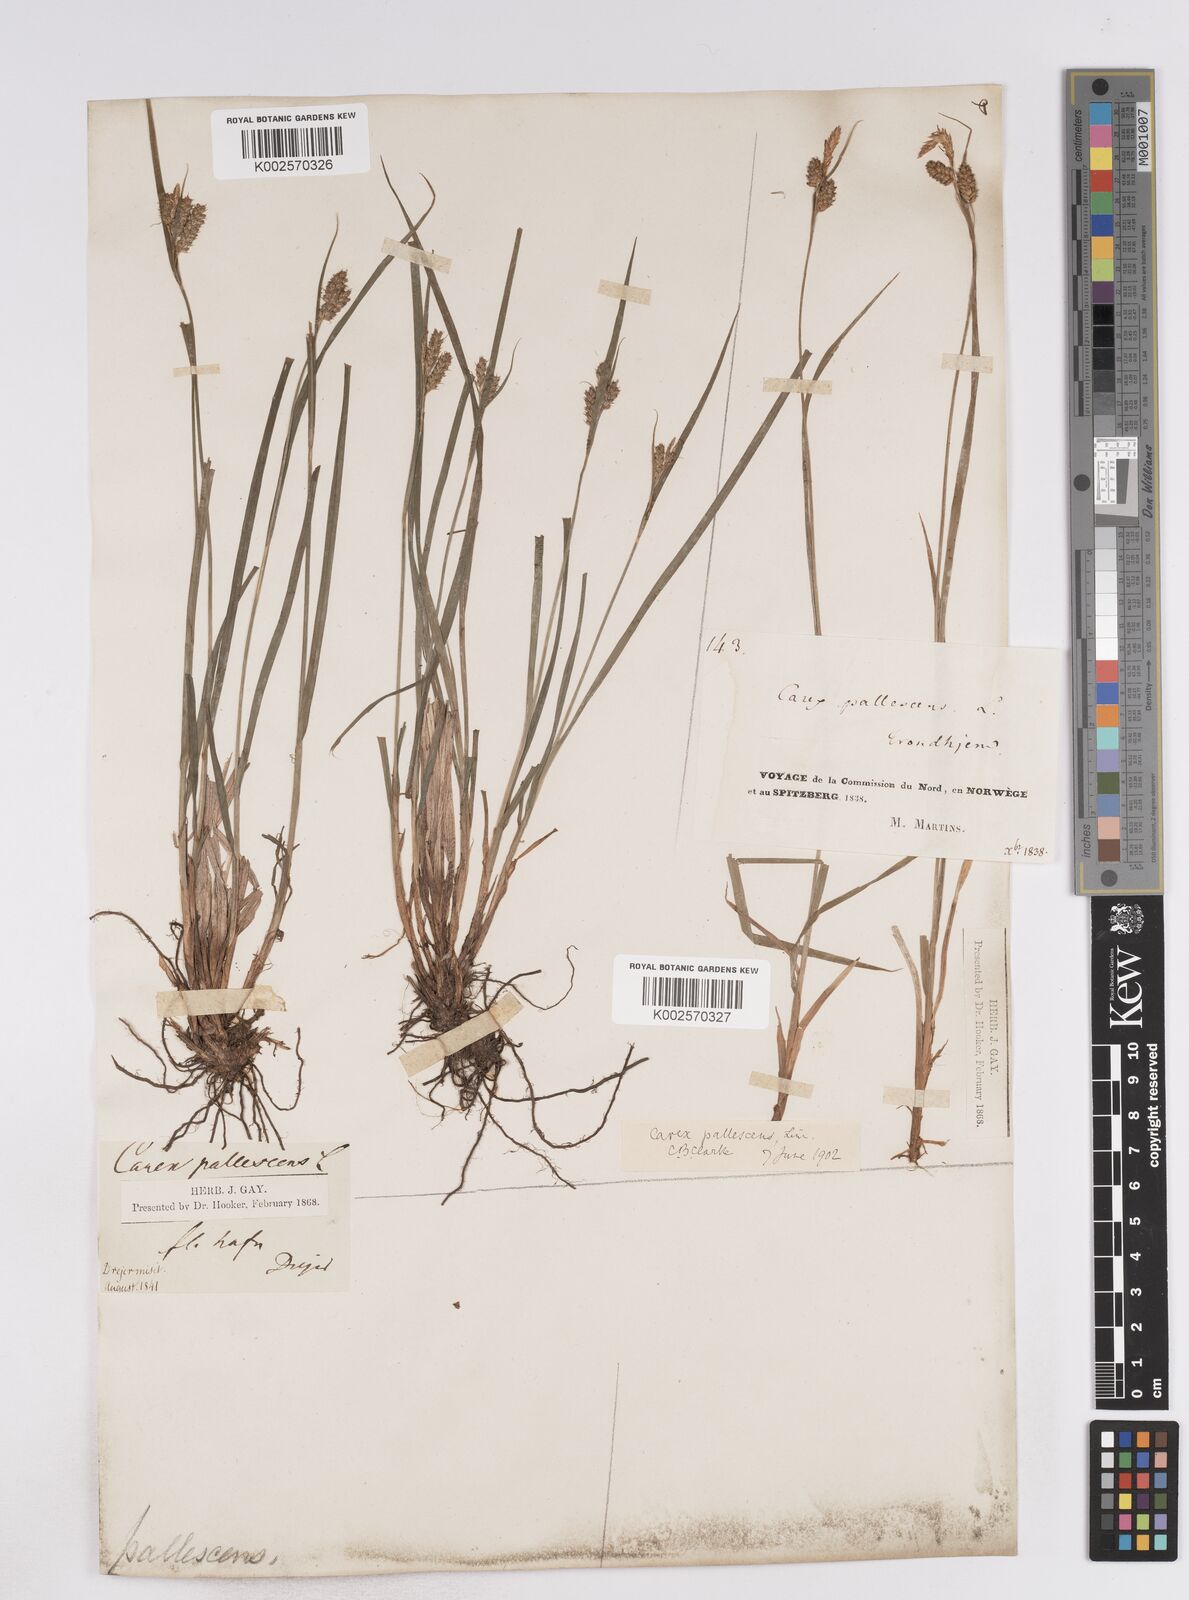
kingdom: Plantae
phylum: Tracheophyta
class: Liliopsida
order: Poales
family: Cyperaceae
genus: Carex
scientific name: Carex pallescens
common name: Pale sedge
